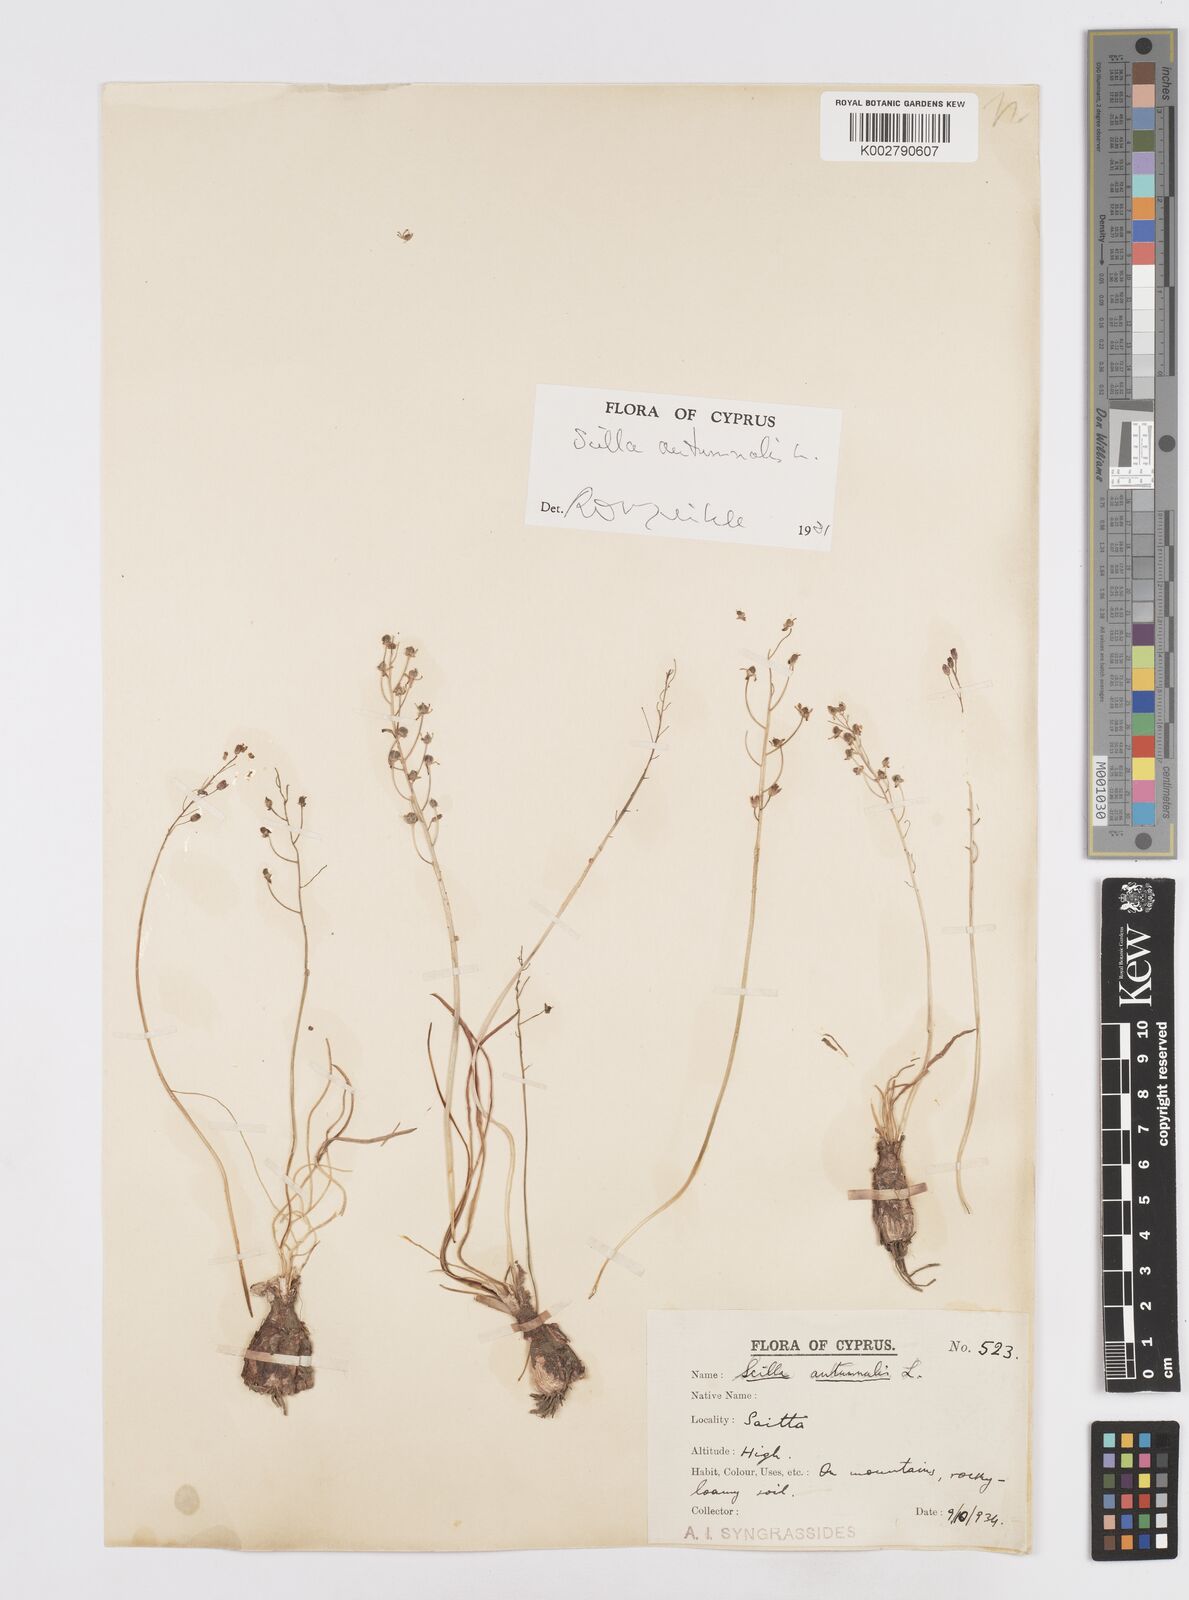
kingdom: Plantae
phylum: Tracheophyta
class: Liliopsida
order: Asparagales
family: Asparagaceae
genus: Prospero
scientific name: Prospero autumnale
